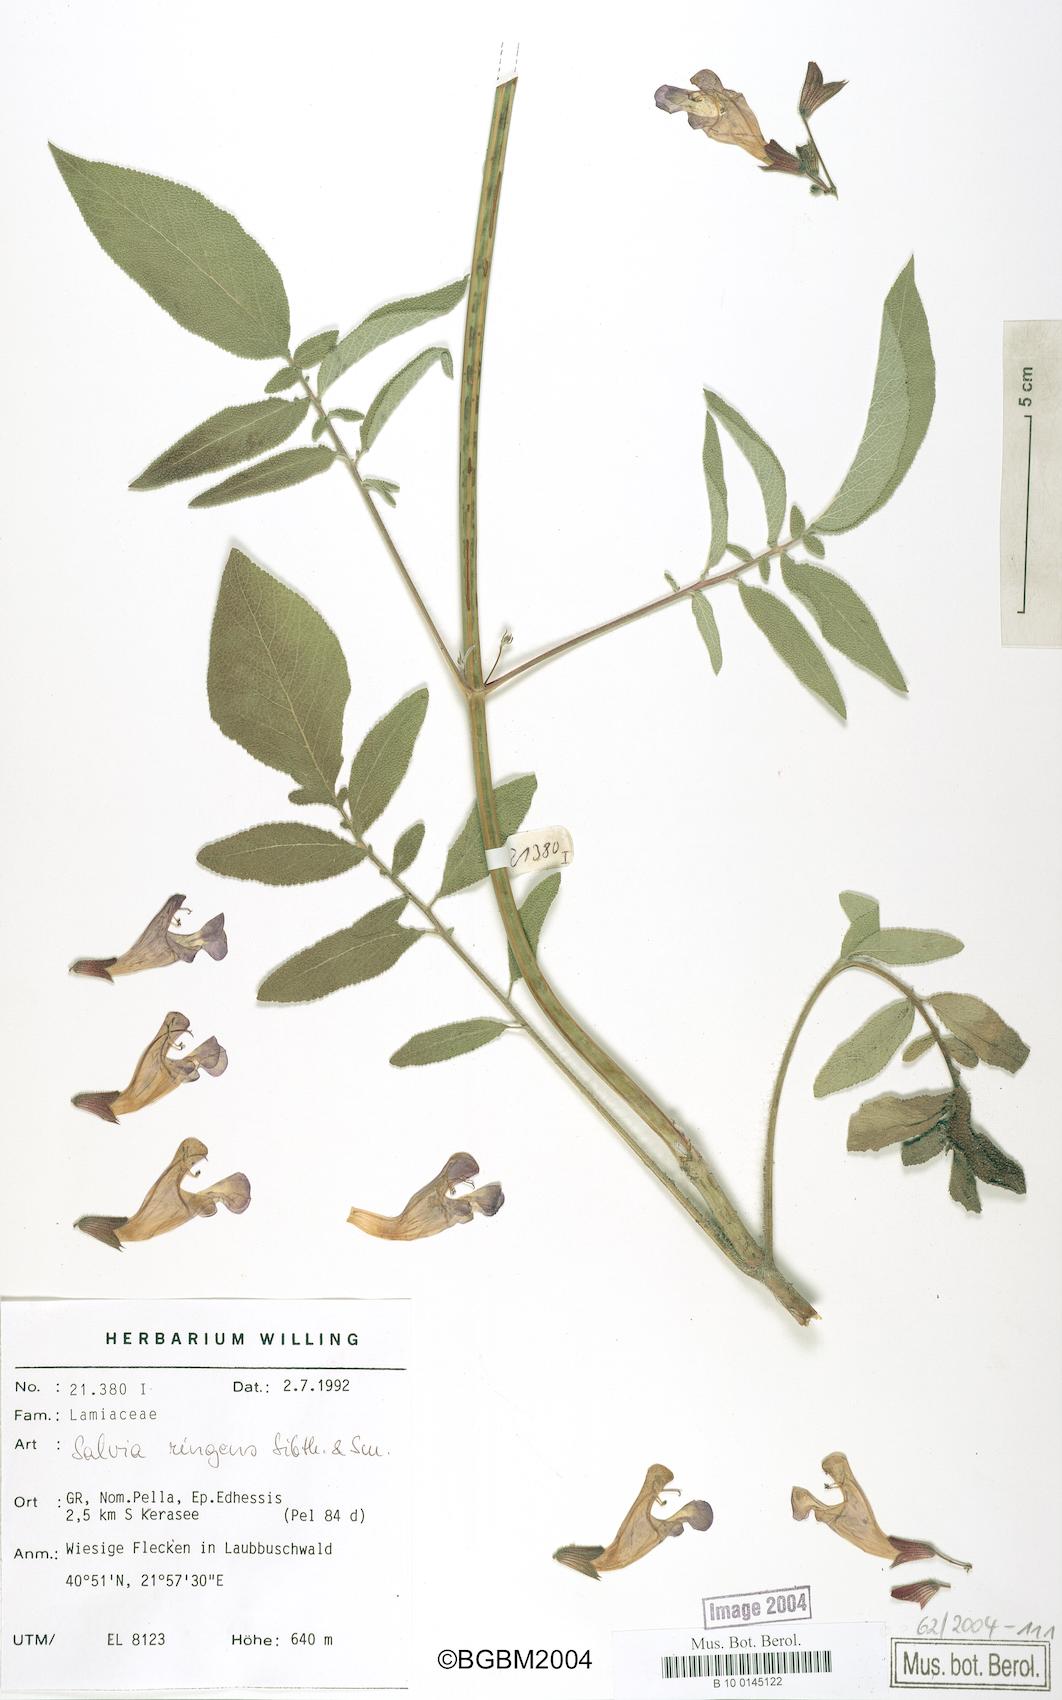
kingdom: Plantae
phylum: Tracheophyta
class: Magnoliopsida
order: Lamiales
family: Lamiaceae
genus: Salvia
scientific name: Salvia ringens
